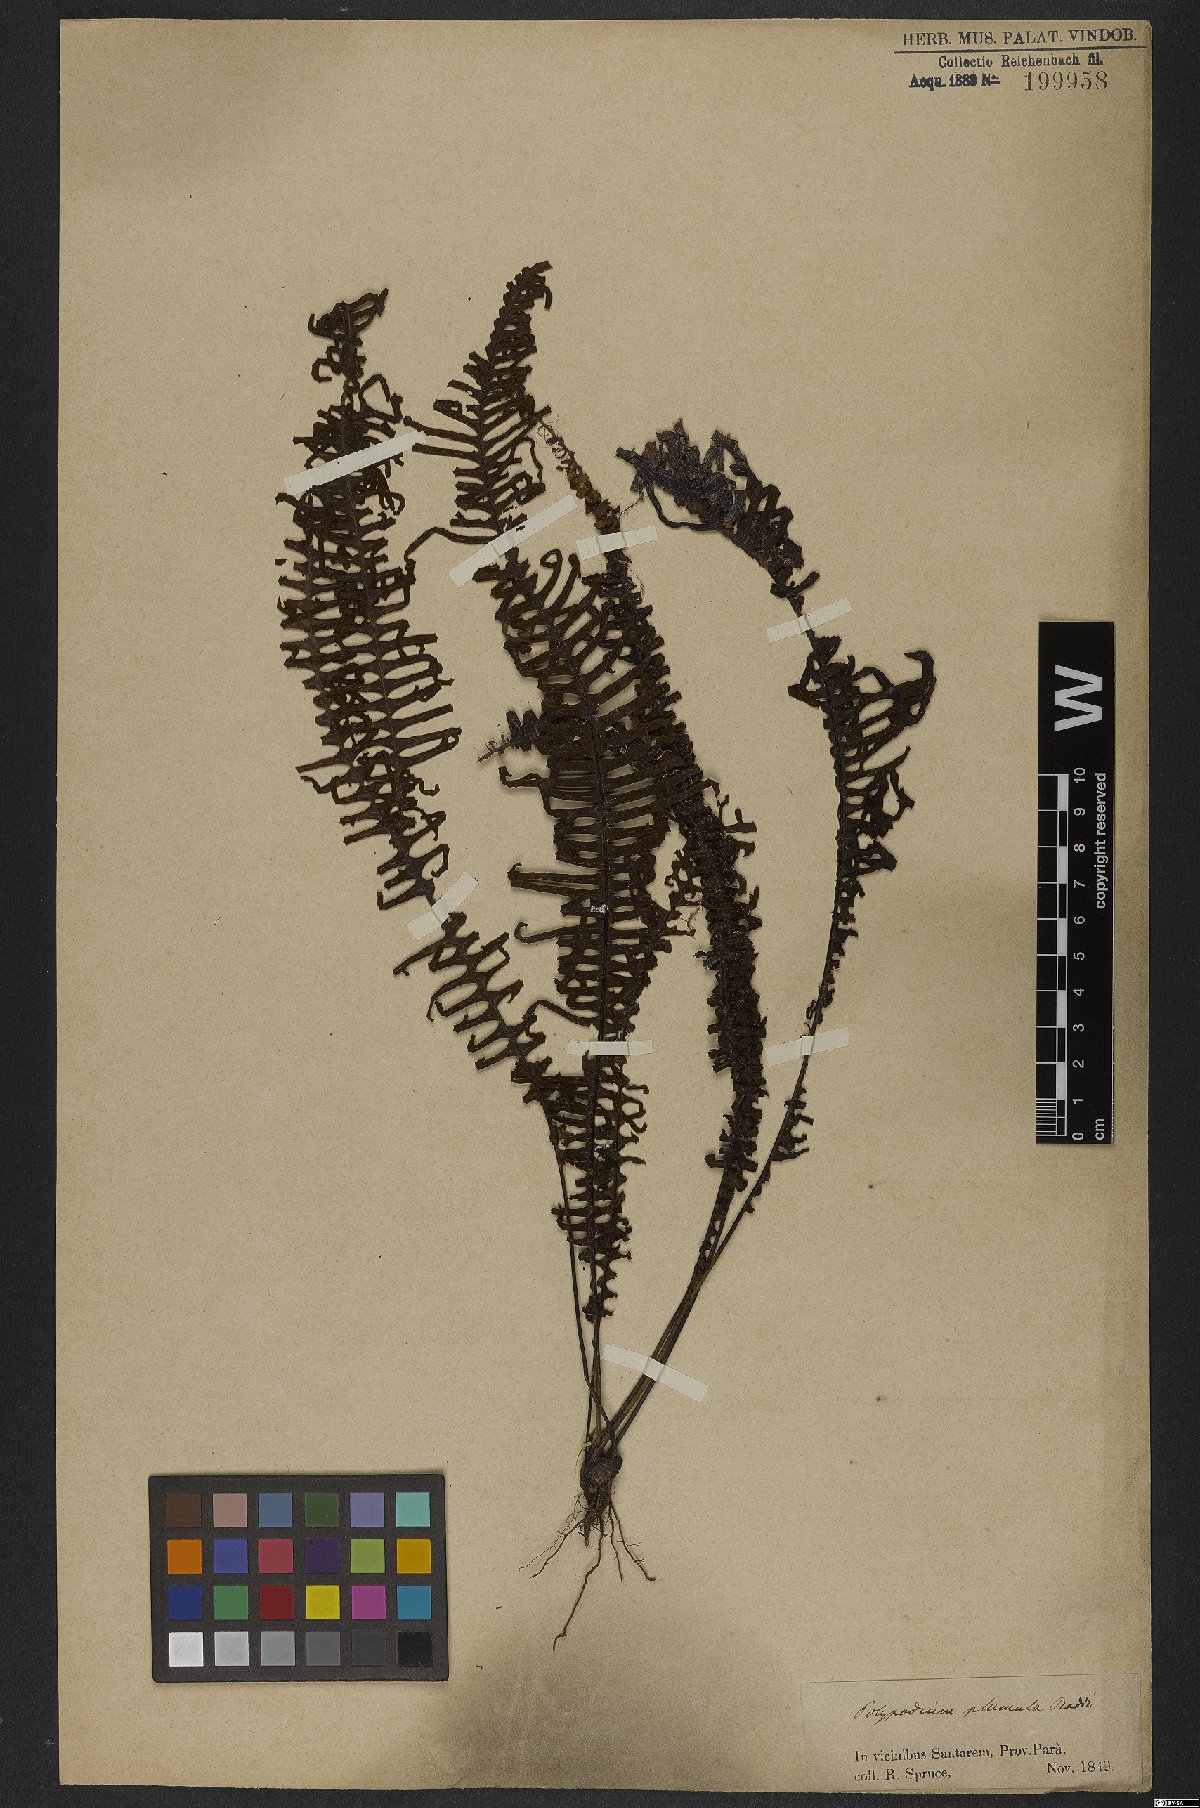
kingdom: Plantae
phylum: Tracheophyta
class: Polypodiopsida
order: Polypodiales
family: Polypodiaceae
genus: Pecluma
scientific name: Pecluma plumula
